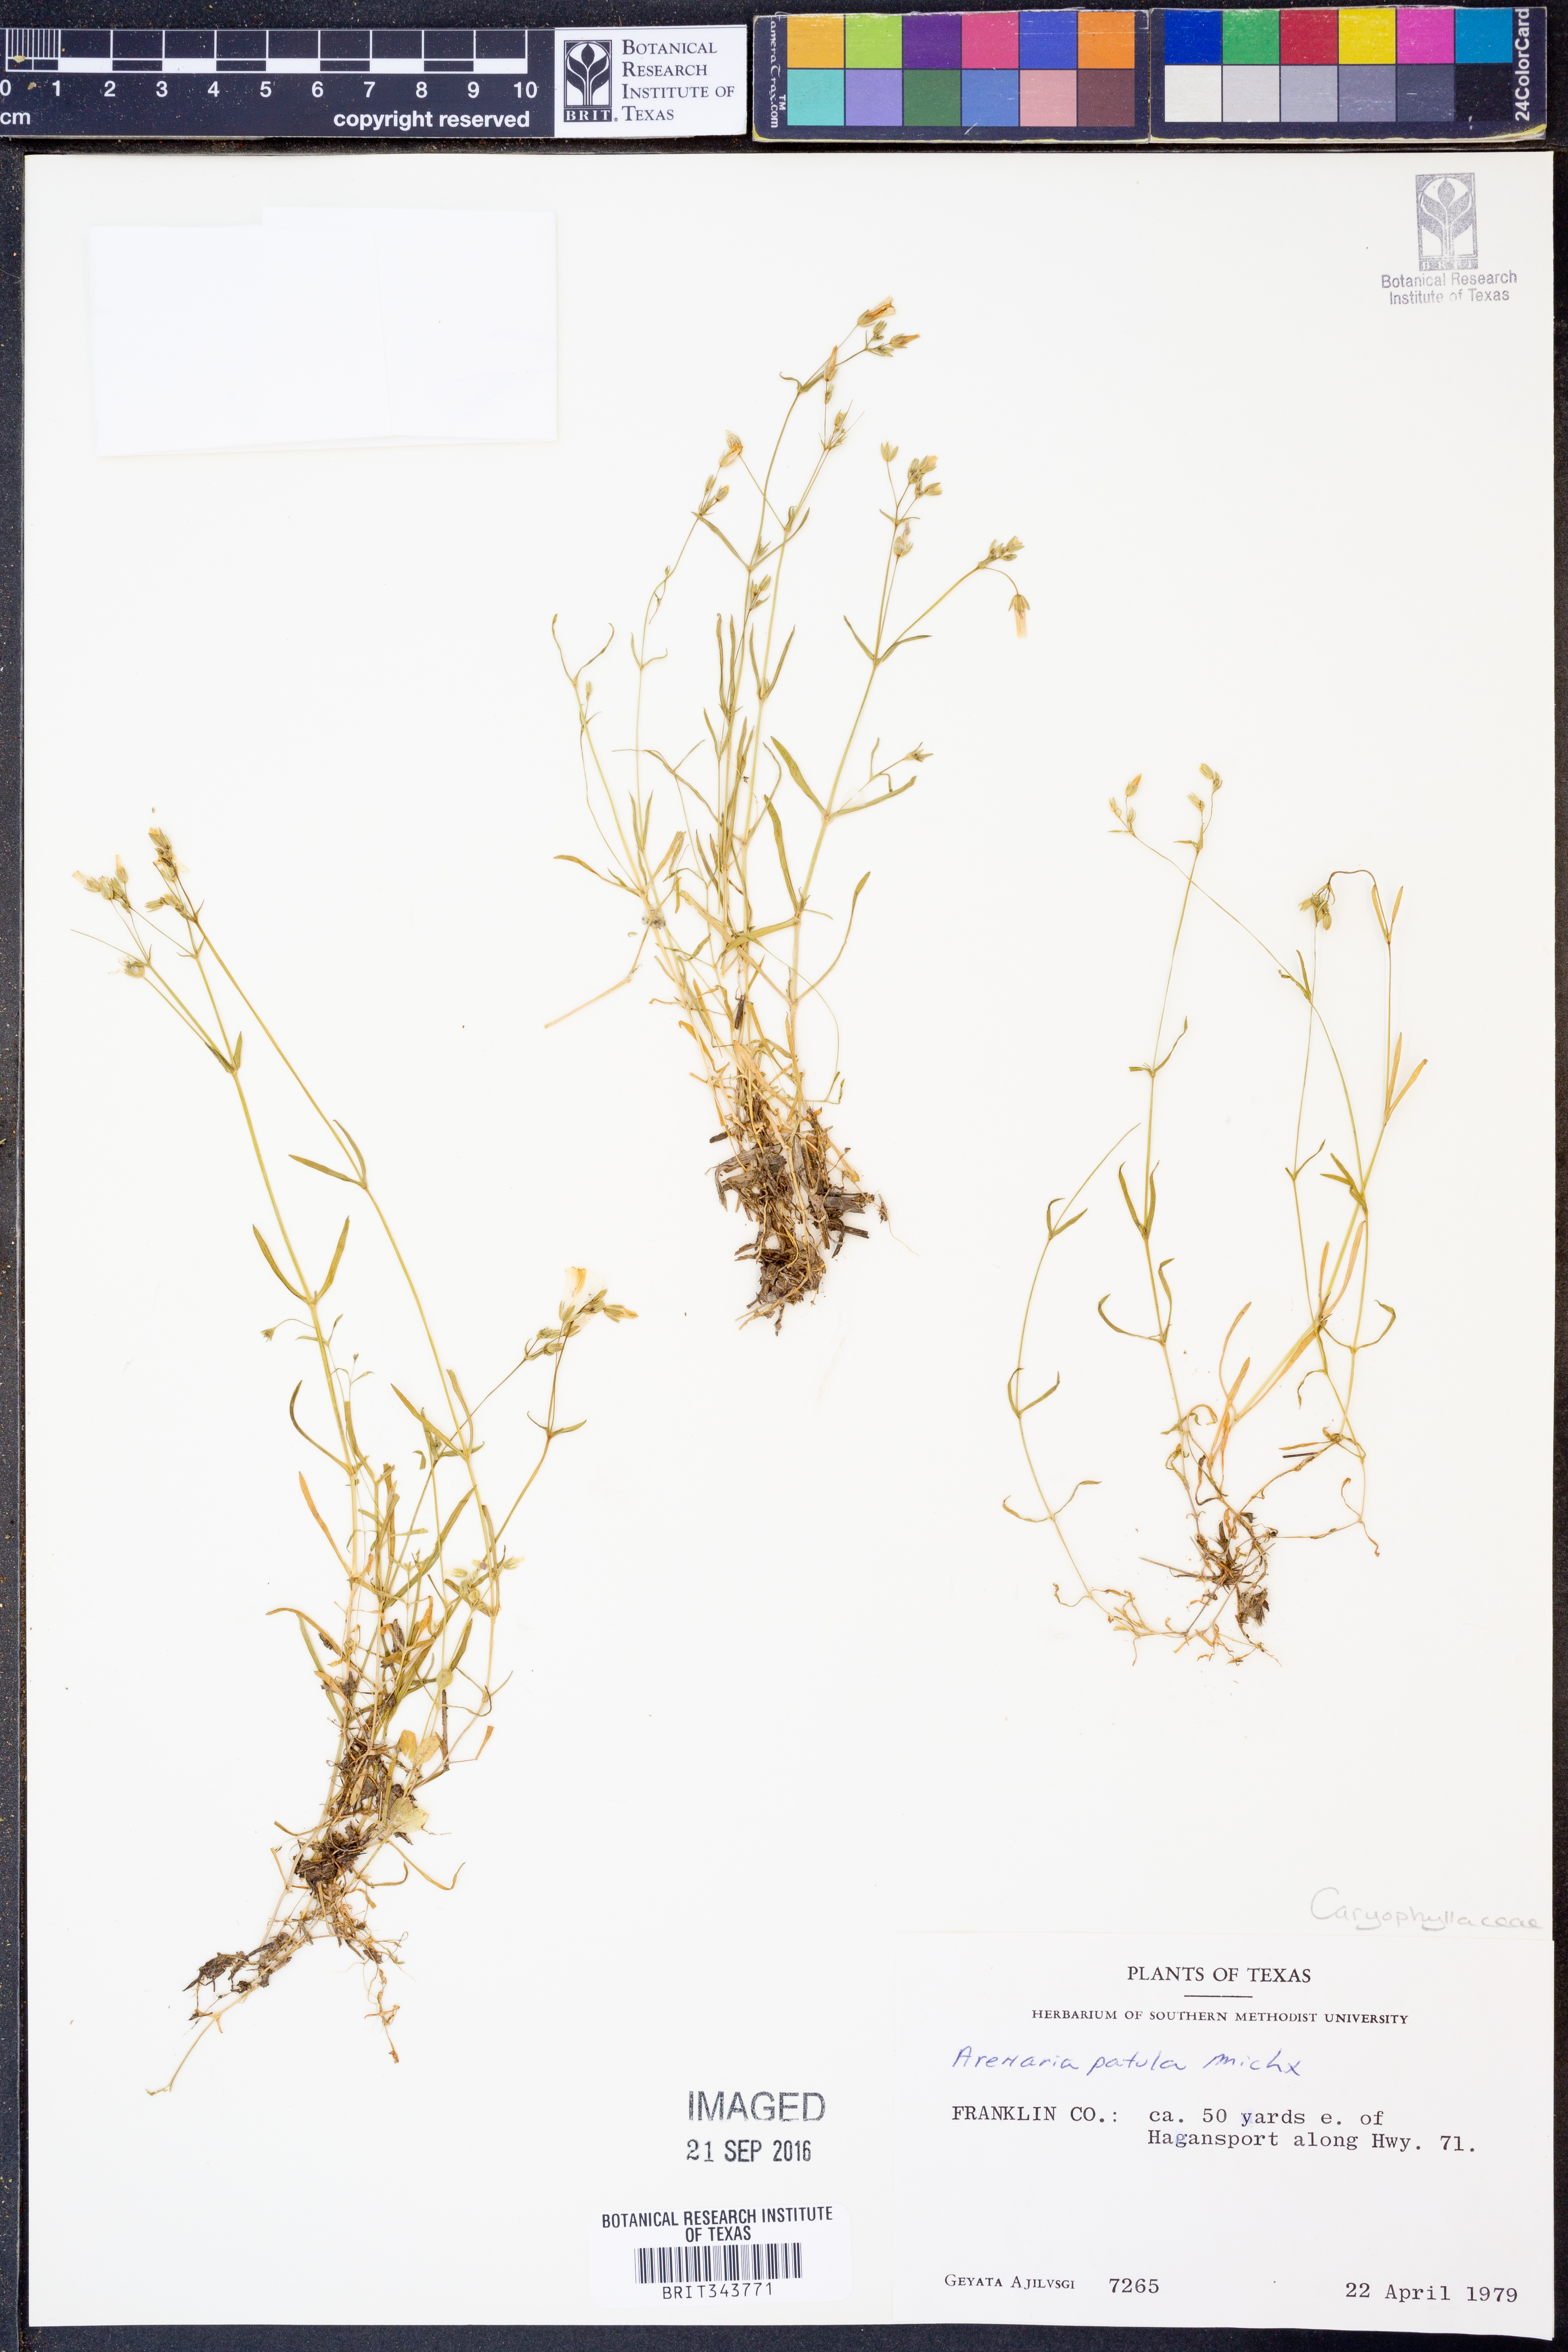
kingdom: Plantae
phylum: Tracheophyta
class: Magnoliopsida
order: Caryophyllales
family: Caryophyllaceae
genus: Mononeuria
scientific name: Mononeuria patula
